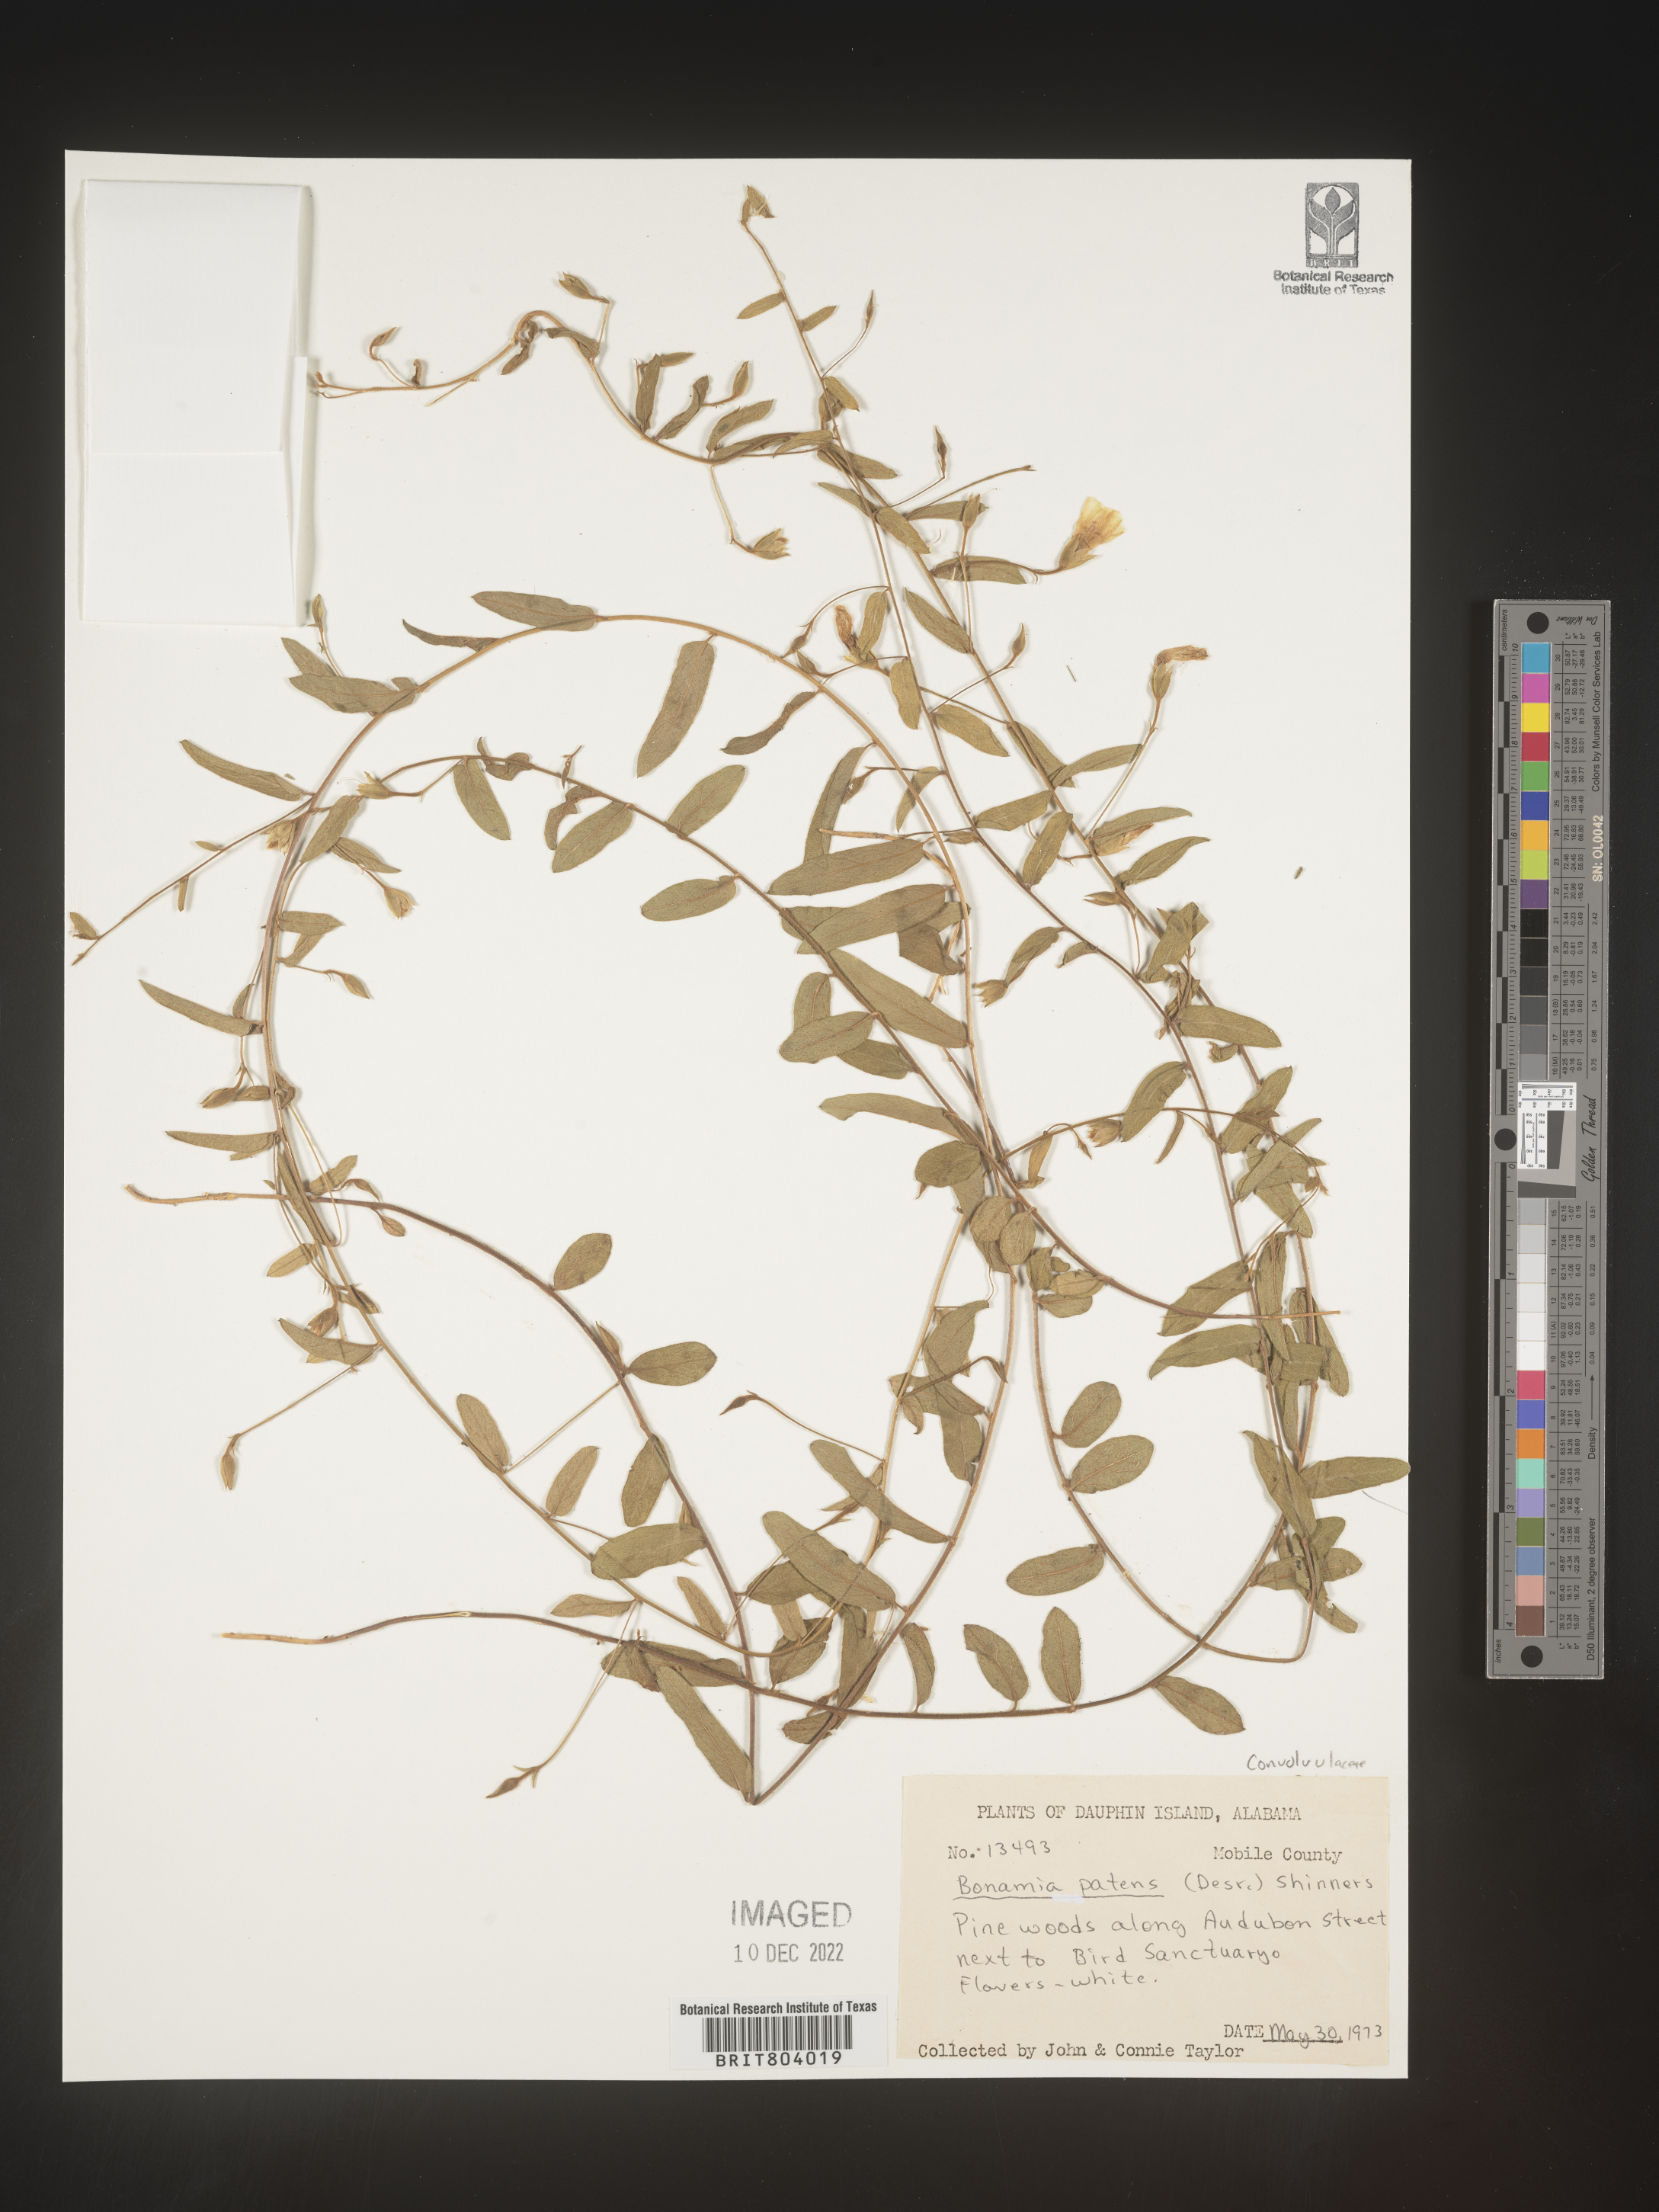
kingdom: Plantae
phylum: Tracheophyta
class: Magnoliopsida
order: Solanales
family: Convolvulaceae
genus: Bonamia
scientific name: Bonamia
